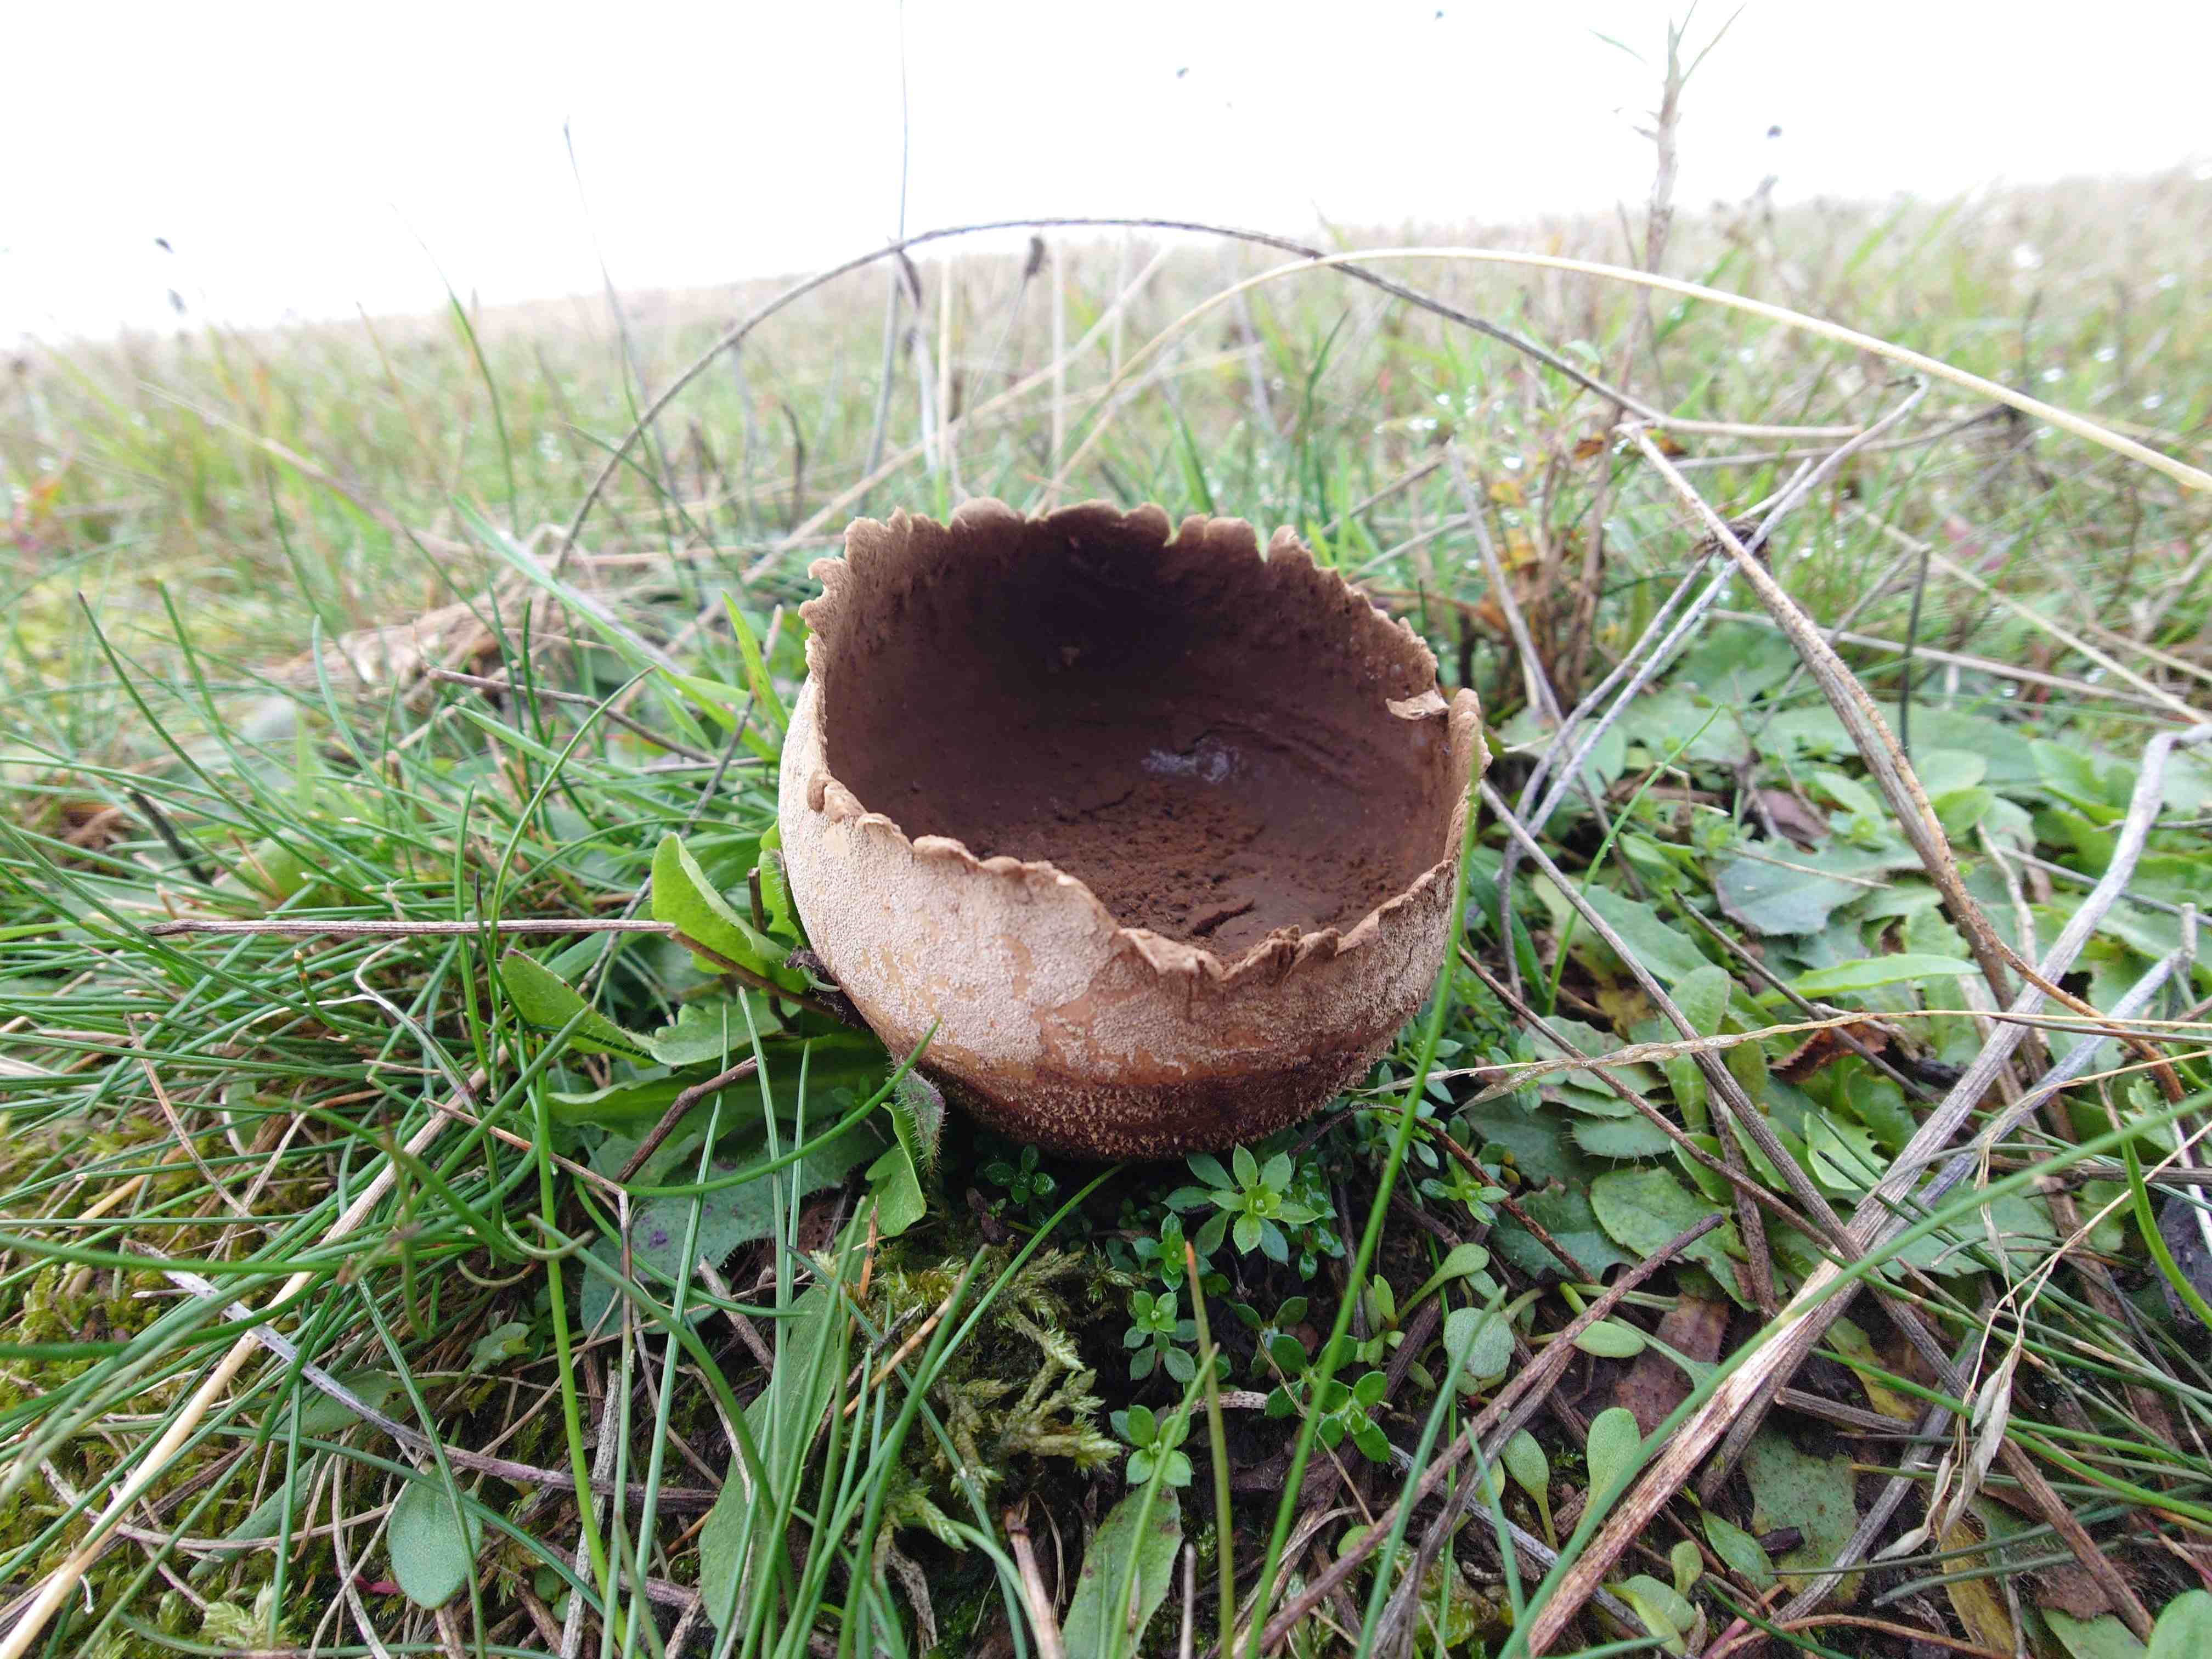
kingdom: Fungi
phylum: Basidiomycota
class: Agaricomycetes
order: Agaricales
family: Lycoperdaceae
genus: Bovistella
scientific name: Bovistella utriformis
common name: skællet støvbold
